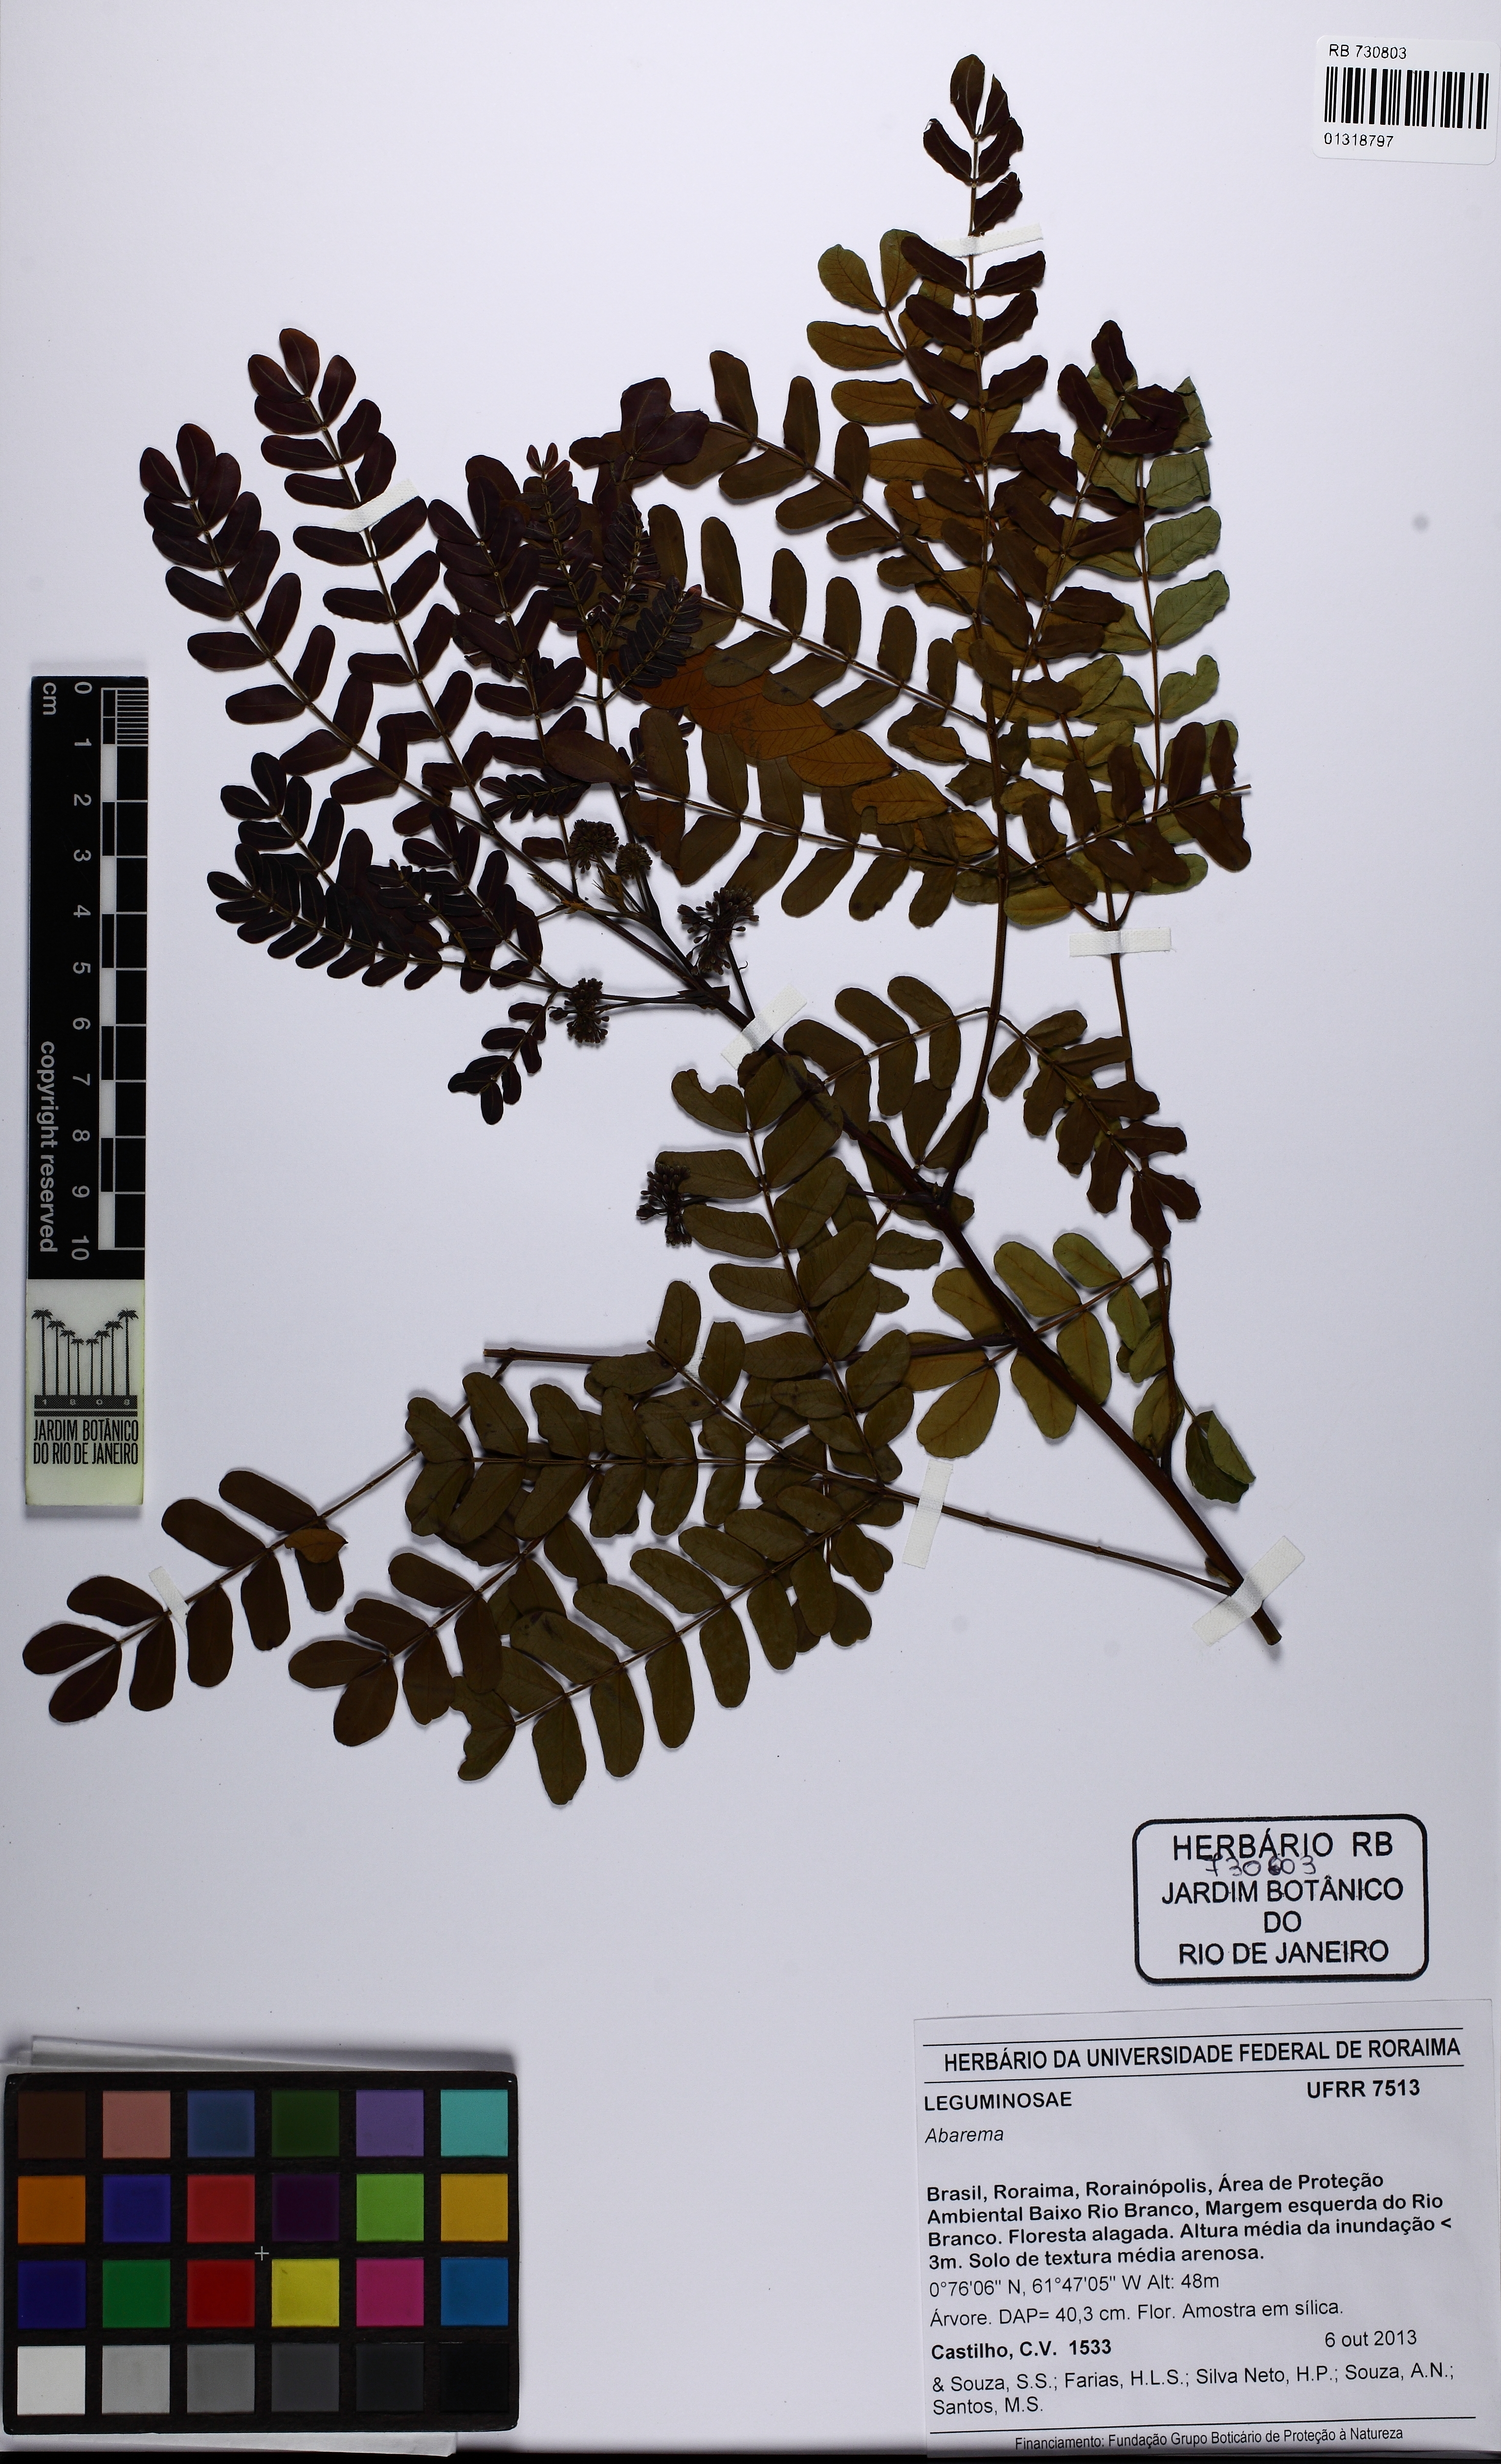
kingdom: Plantae
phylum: Tracheophyta
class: Magnoliopsida
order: Fabales
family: Fabaceae
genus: Hydrochorea
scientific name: Hydrochorea corymbosa
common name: Swamp manariballi
